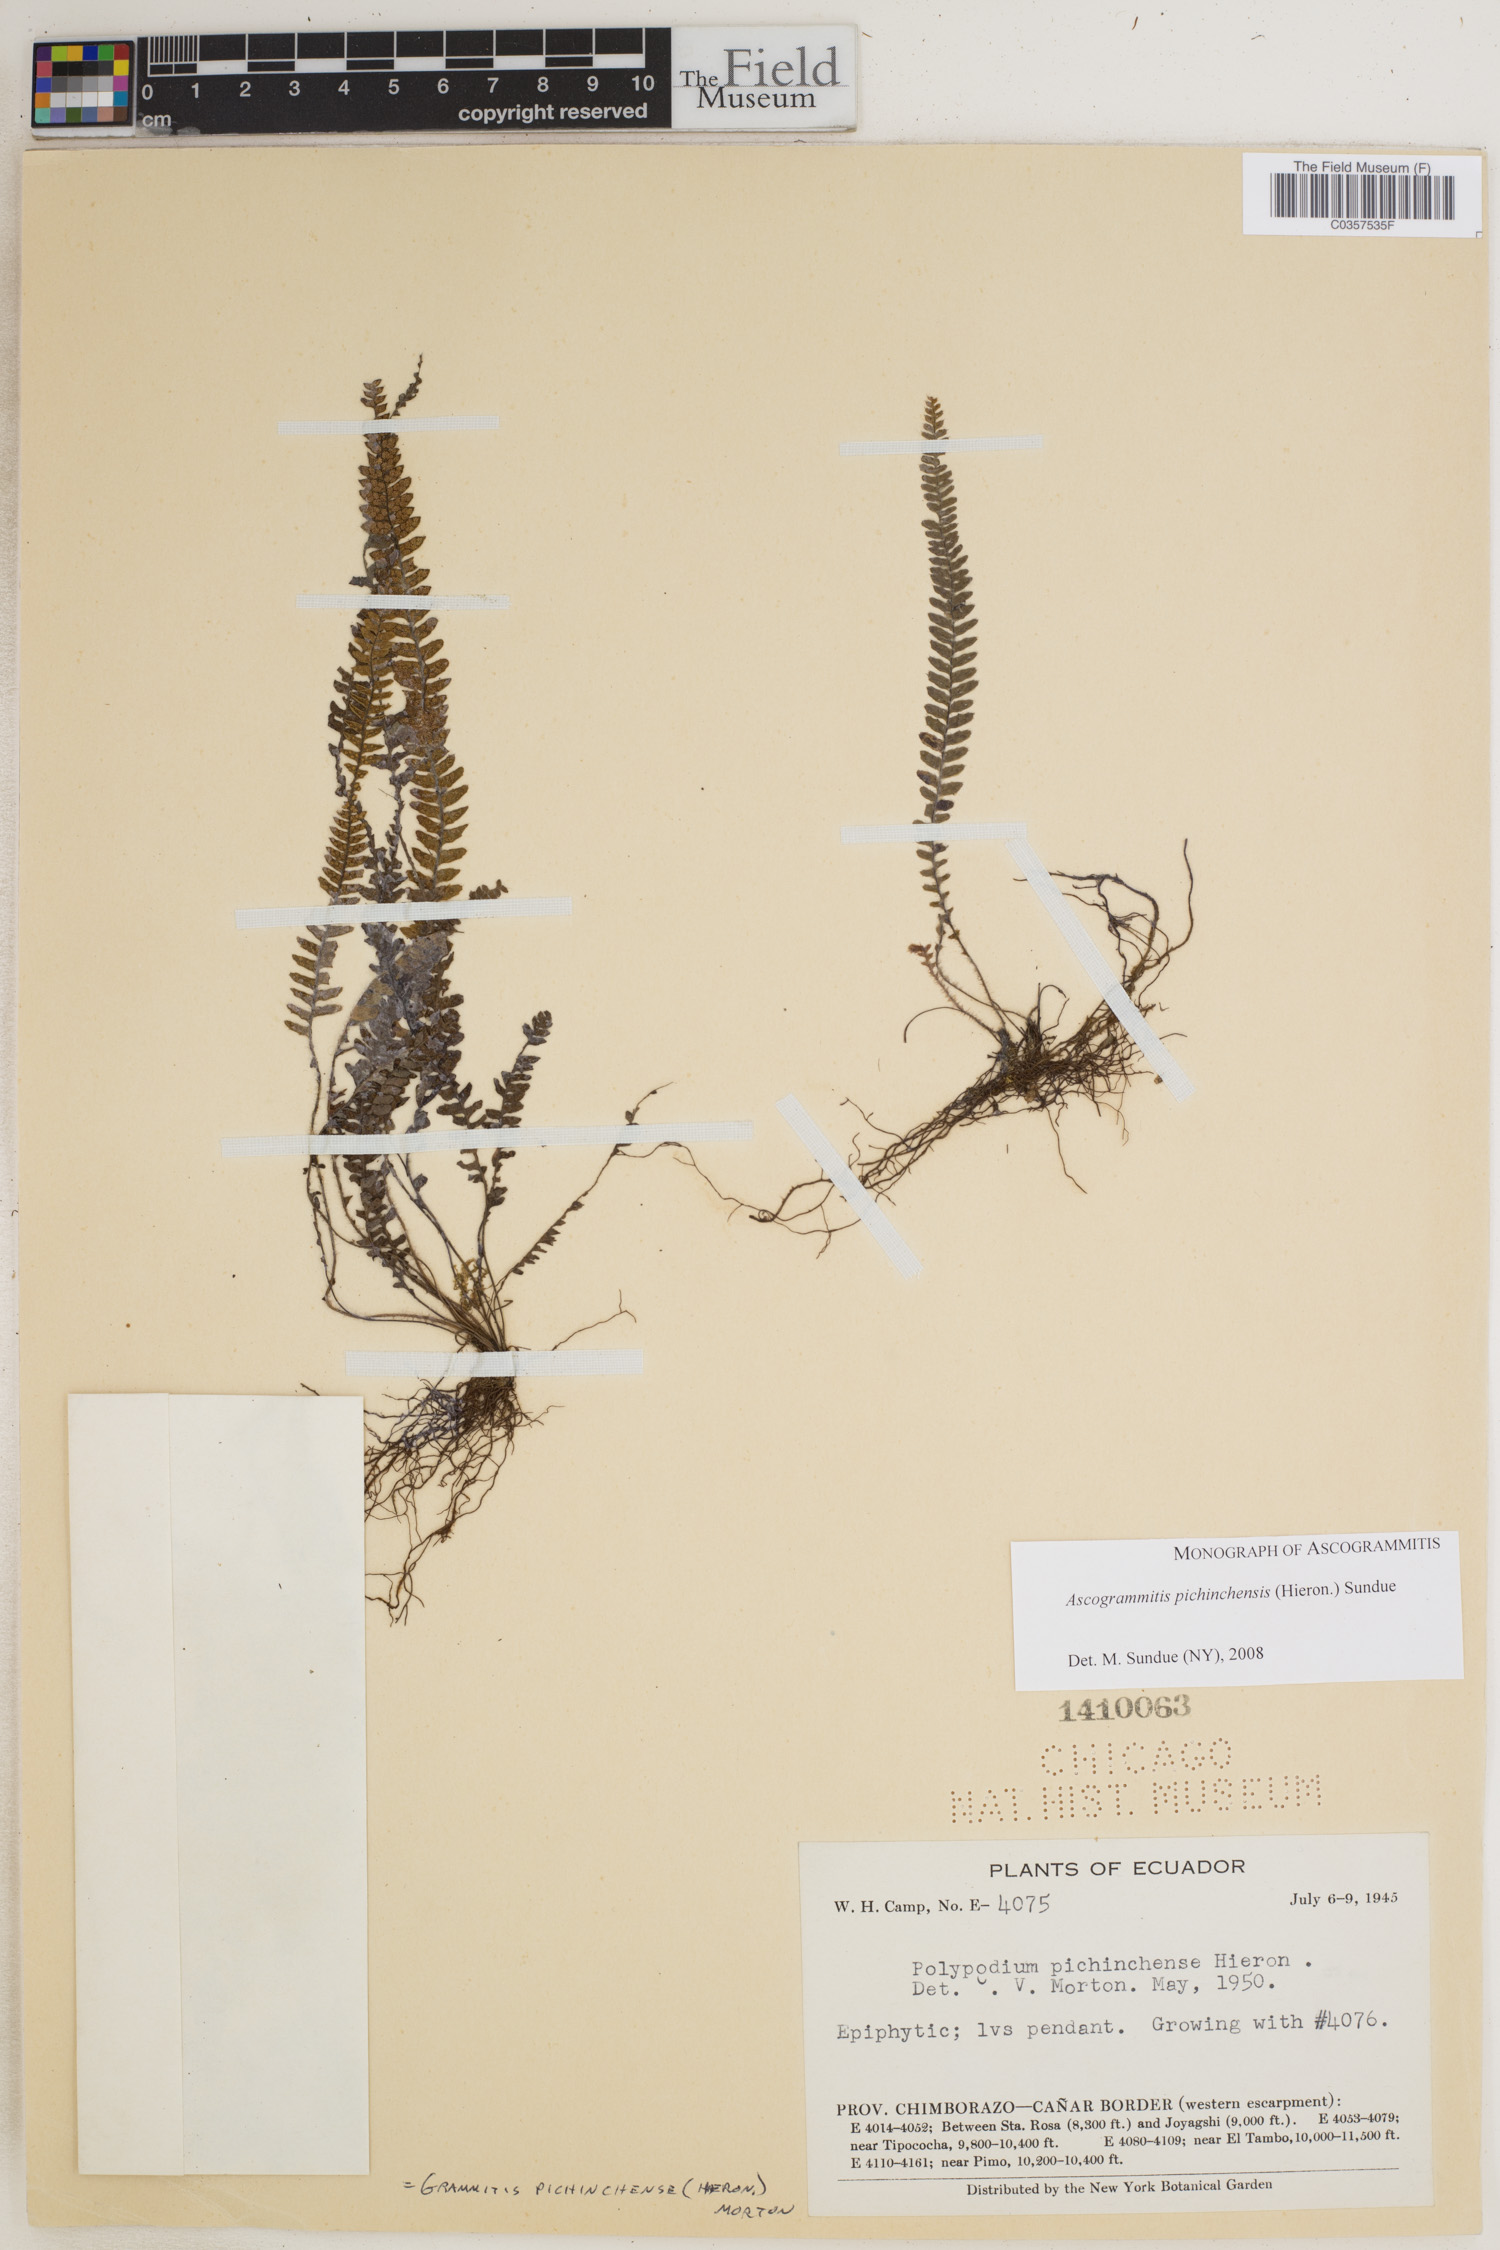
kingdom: Plantae
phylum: Tracheophyta
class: Polypodiopsida
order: Polypodiales
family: Polypodiaceae
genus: Ascogrammitis
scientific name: Ascogrammitis pichinchensis
